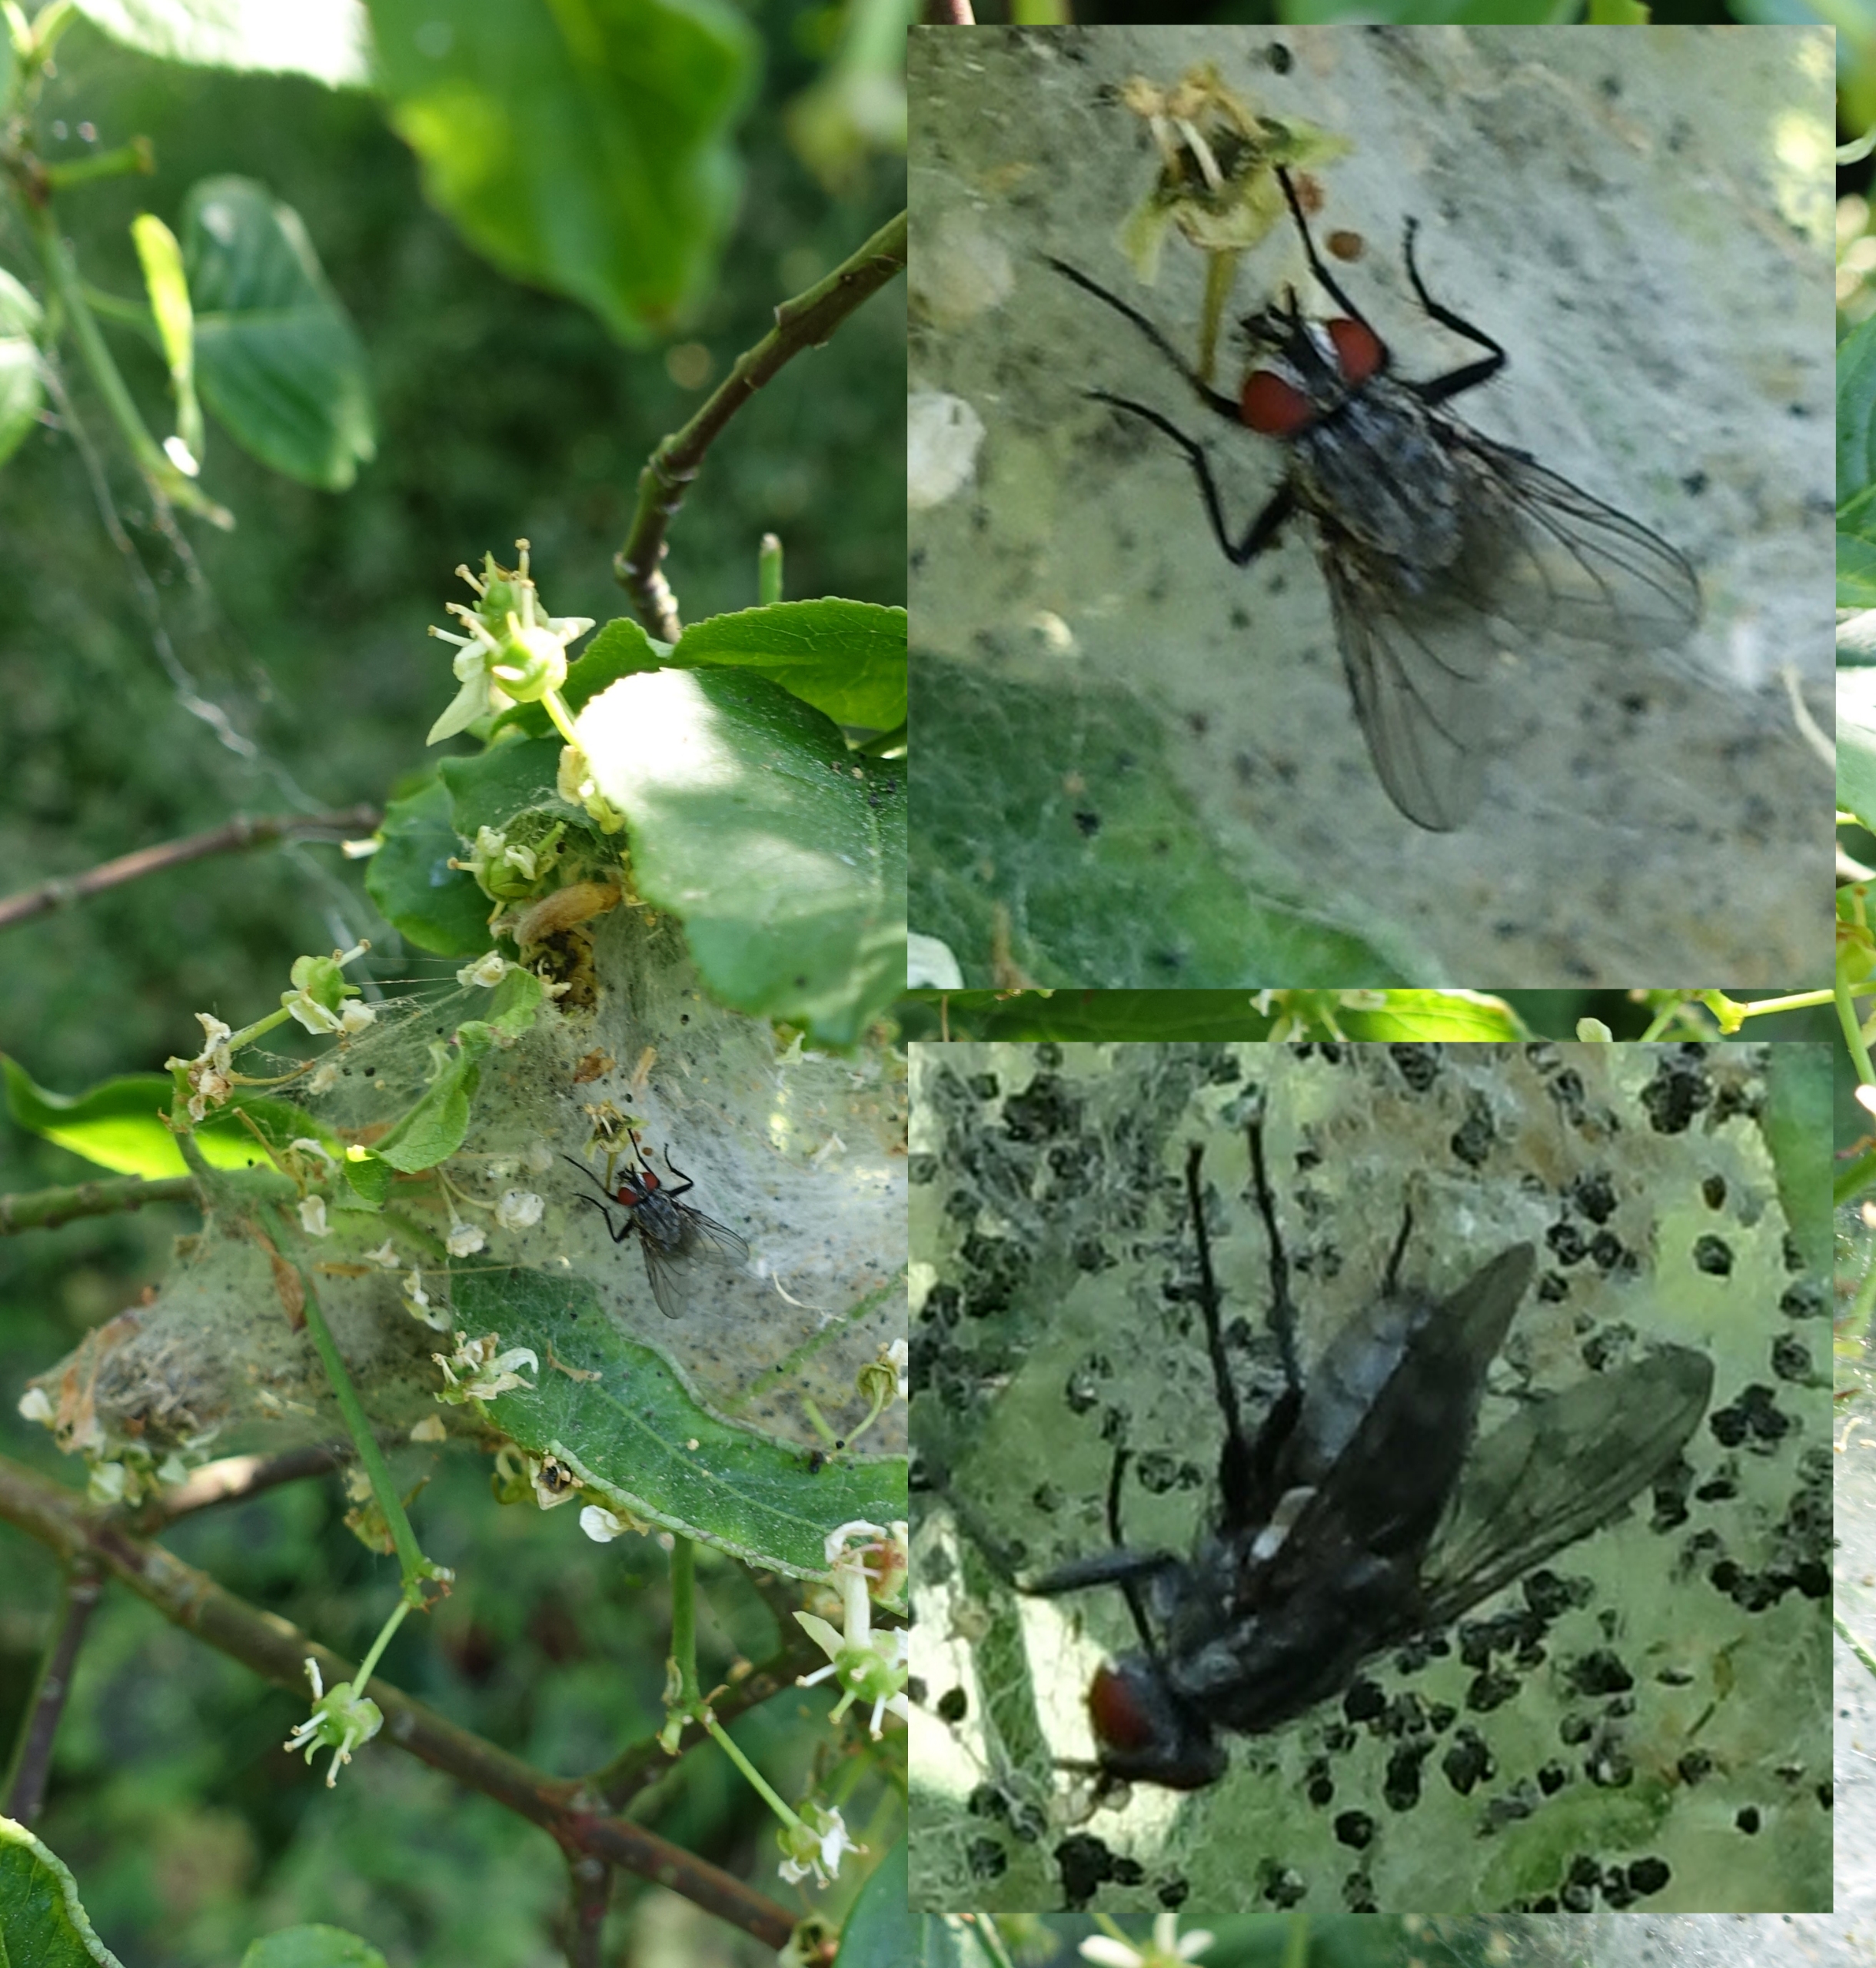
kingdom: Animalia
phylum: Arthropoda
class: Insecta
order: Diptera
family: Sarcophagidae
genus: Agria
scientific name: Agria affinis
